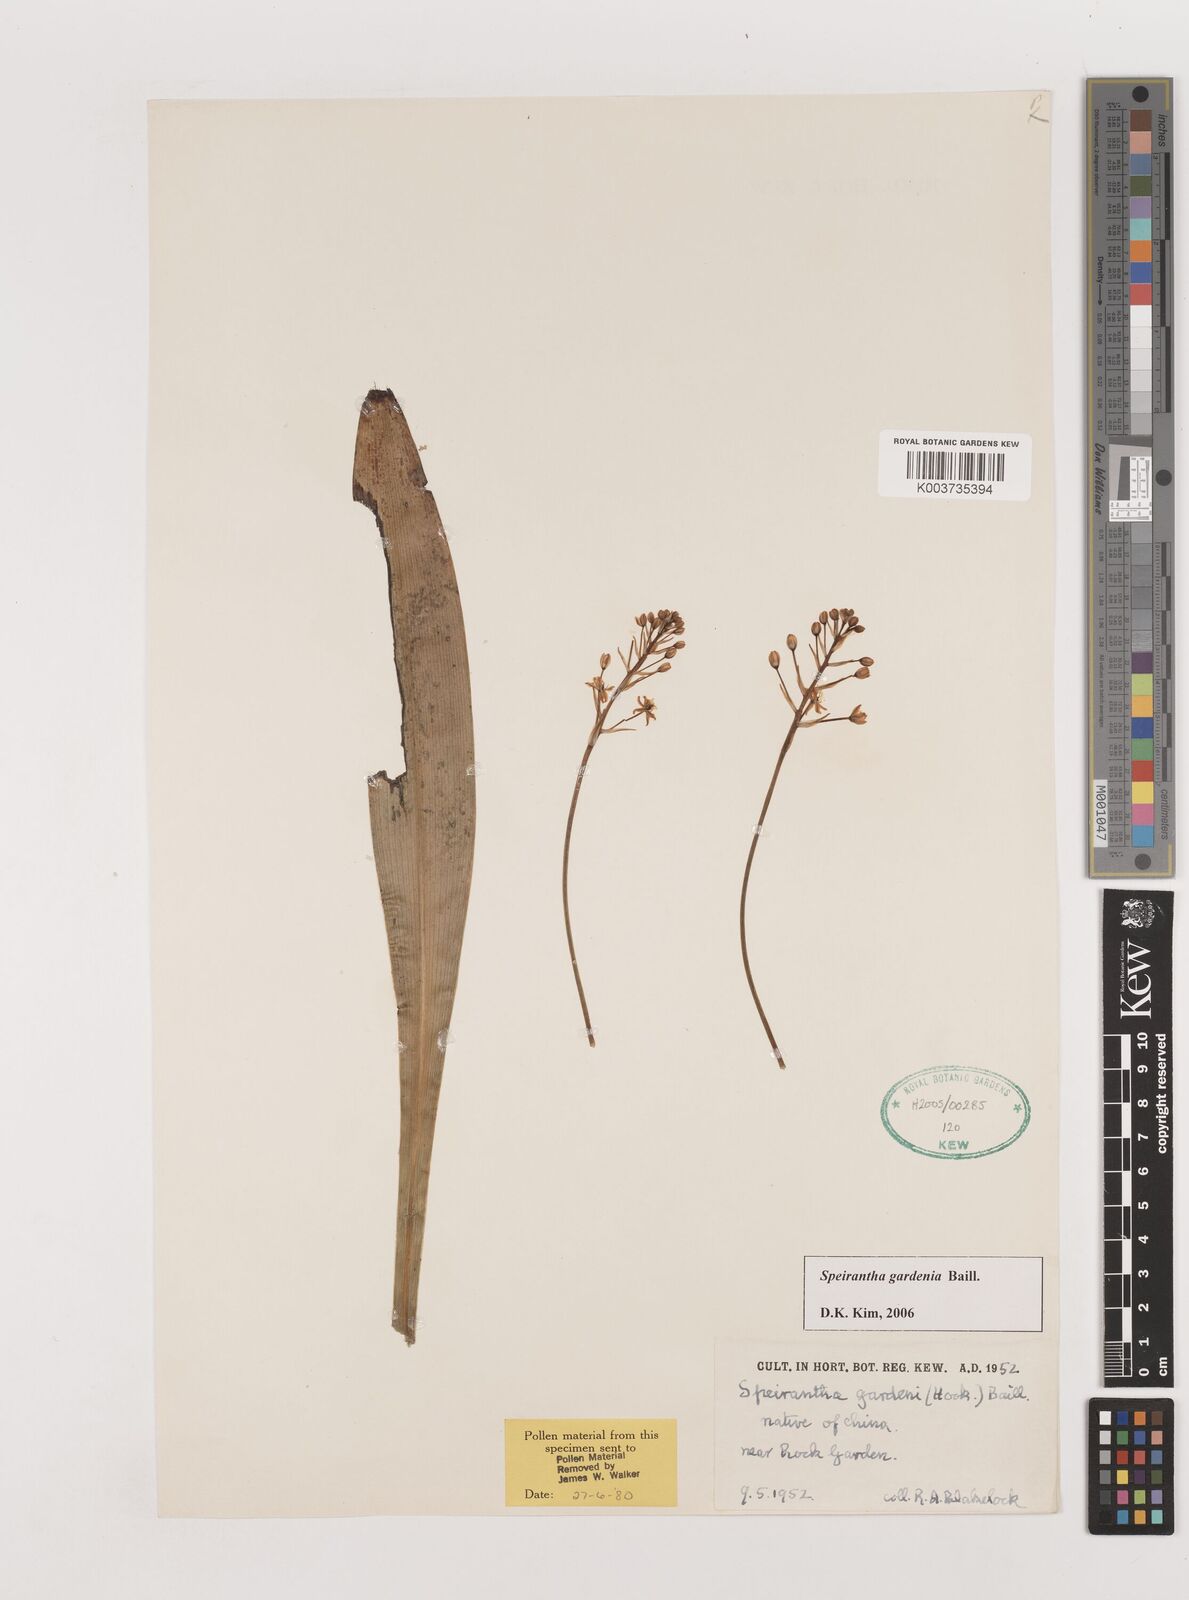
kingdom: Plantae
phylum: Tracheophyta
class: Liliopsida
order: Asparagales
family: Asparagaceae
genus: Speirantha
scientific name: Speirantha gardenii
